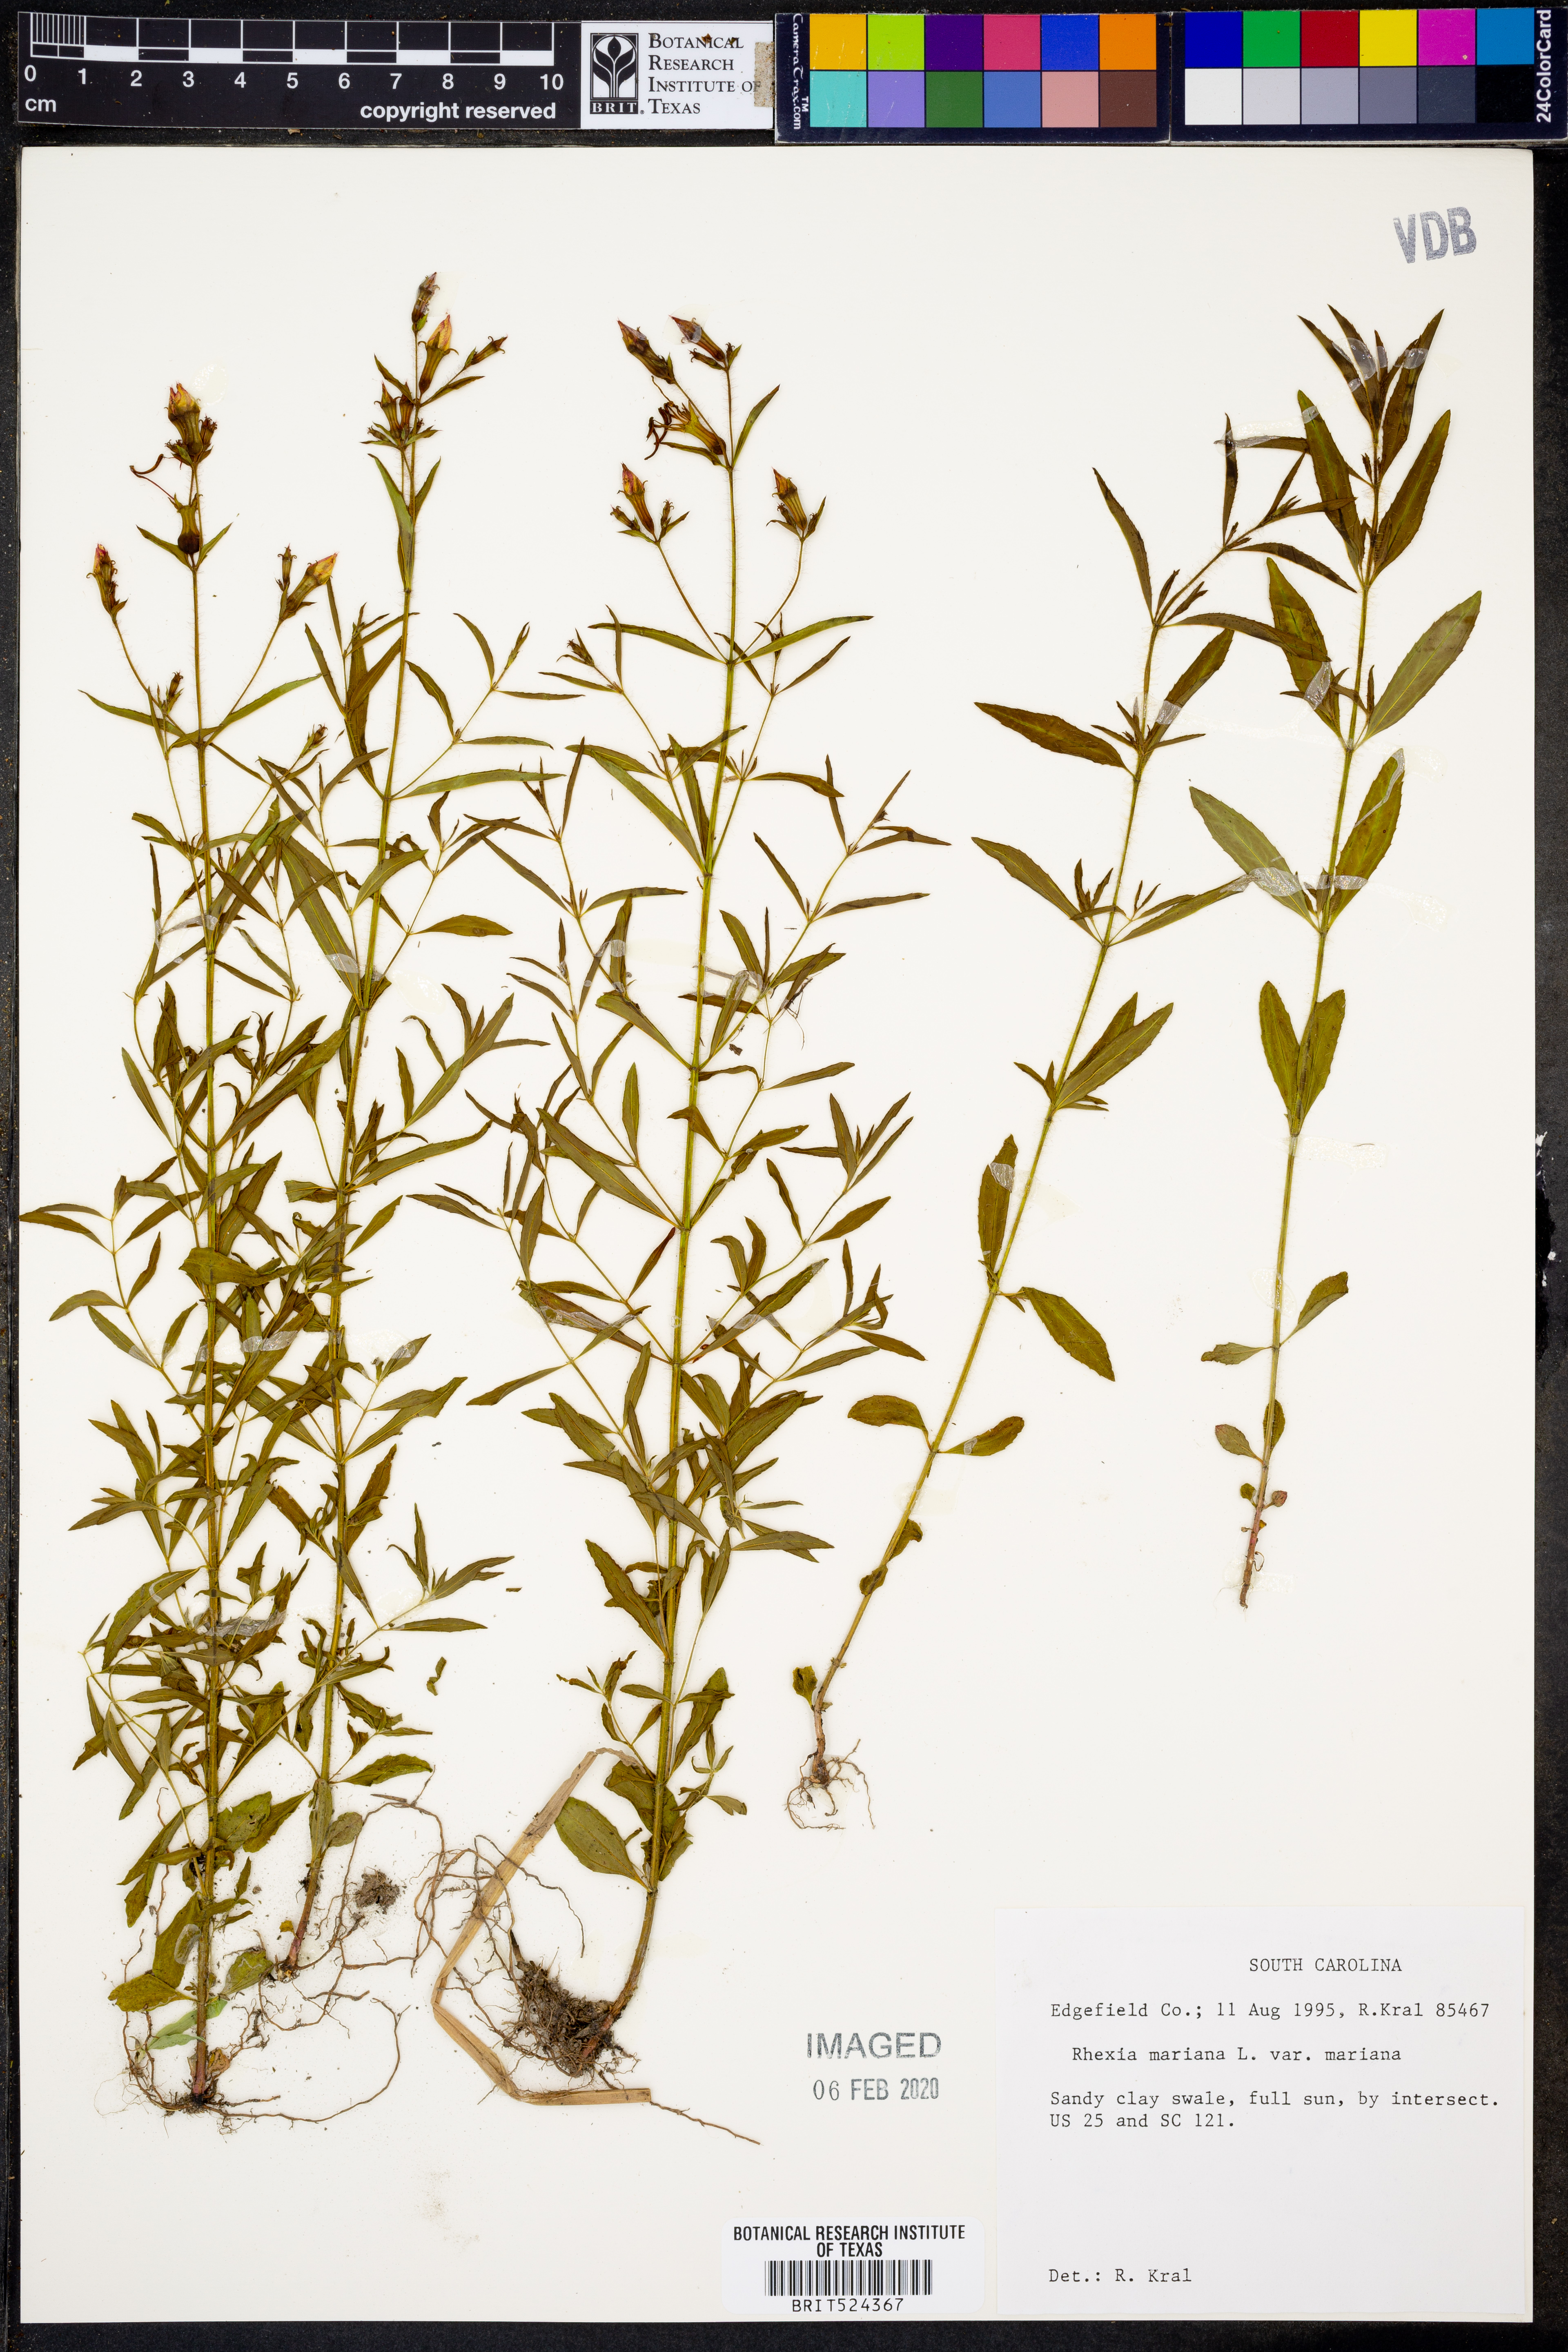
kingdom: Plantae
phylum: Tracheophyta
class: Magnoliopsida
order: Myrtales
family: Melastomataceae
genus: Rhexia
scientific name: Rhexia mariana
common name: Dull meadow-pitcher
